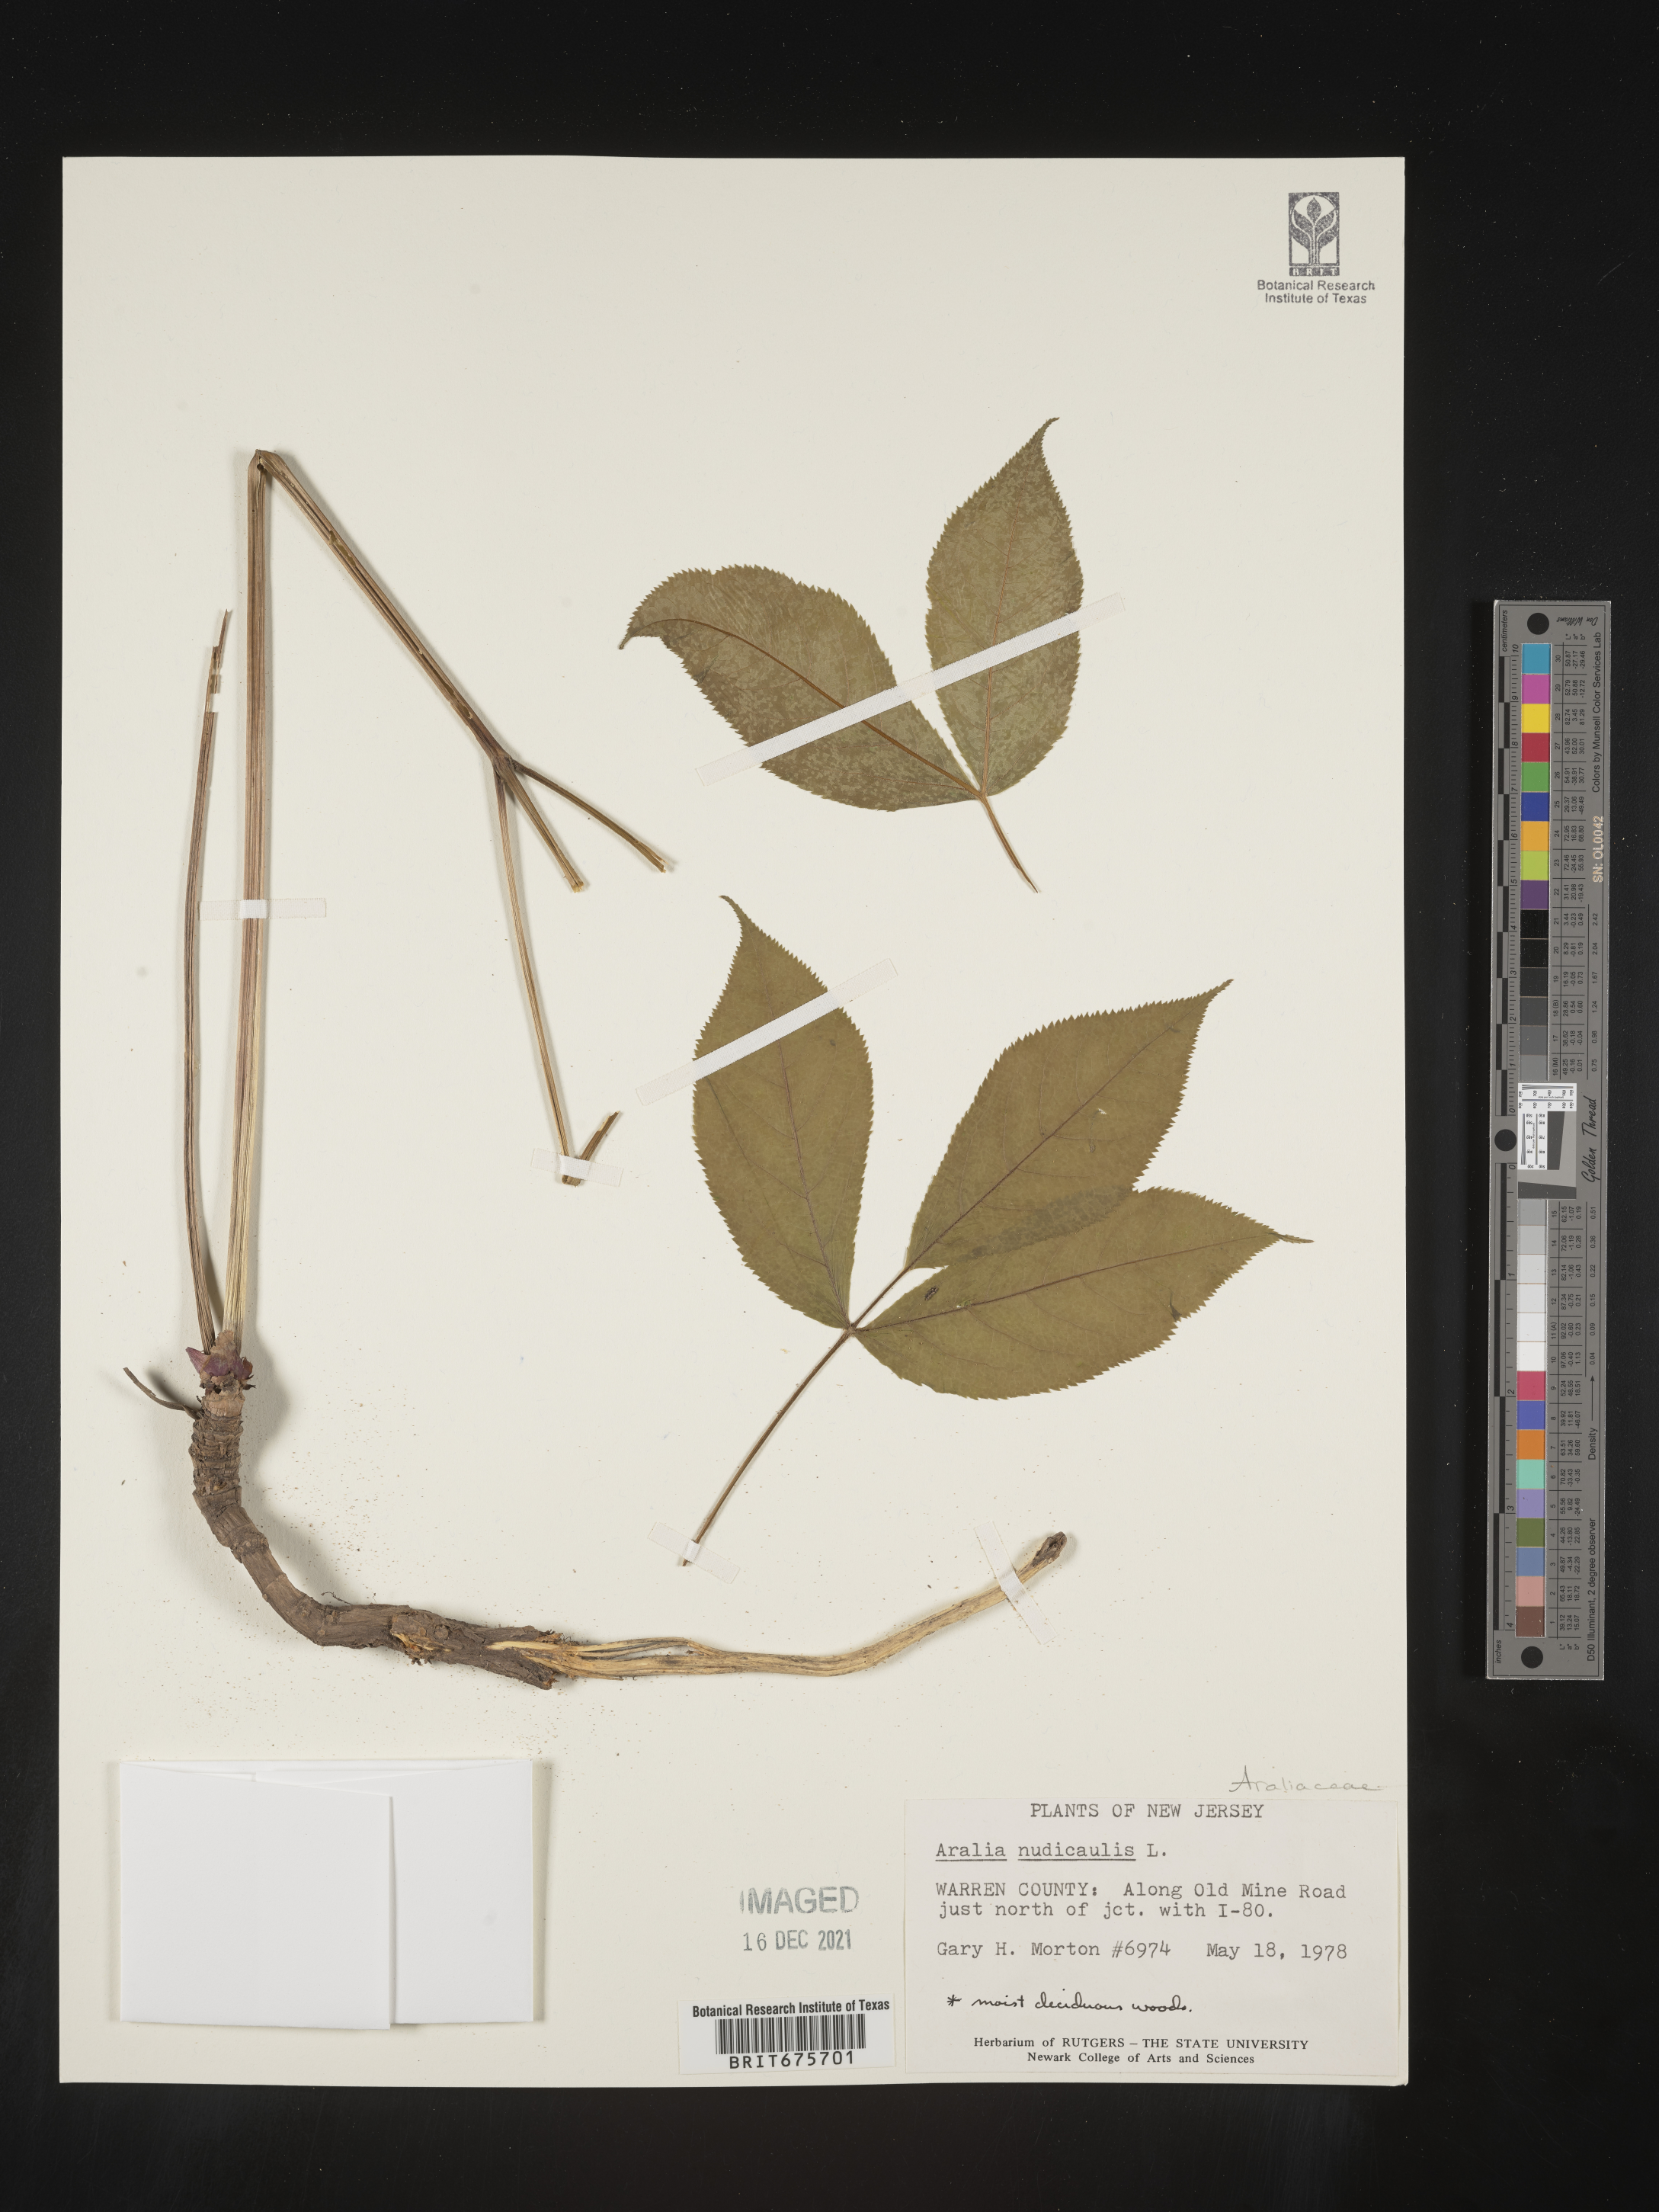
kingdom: Plantae
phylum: Tracheophyta
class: Magnoliopsida
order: Apiales
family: Araliaceae
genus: Aralia
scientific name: Aralia nudicaulis
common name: Wild sarsaparilla
